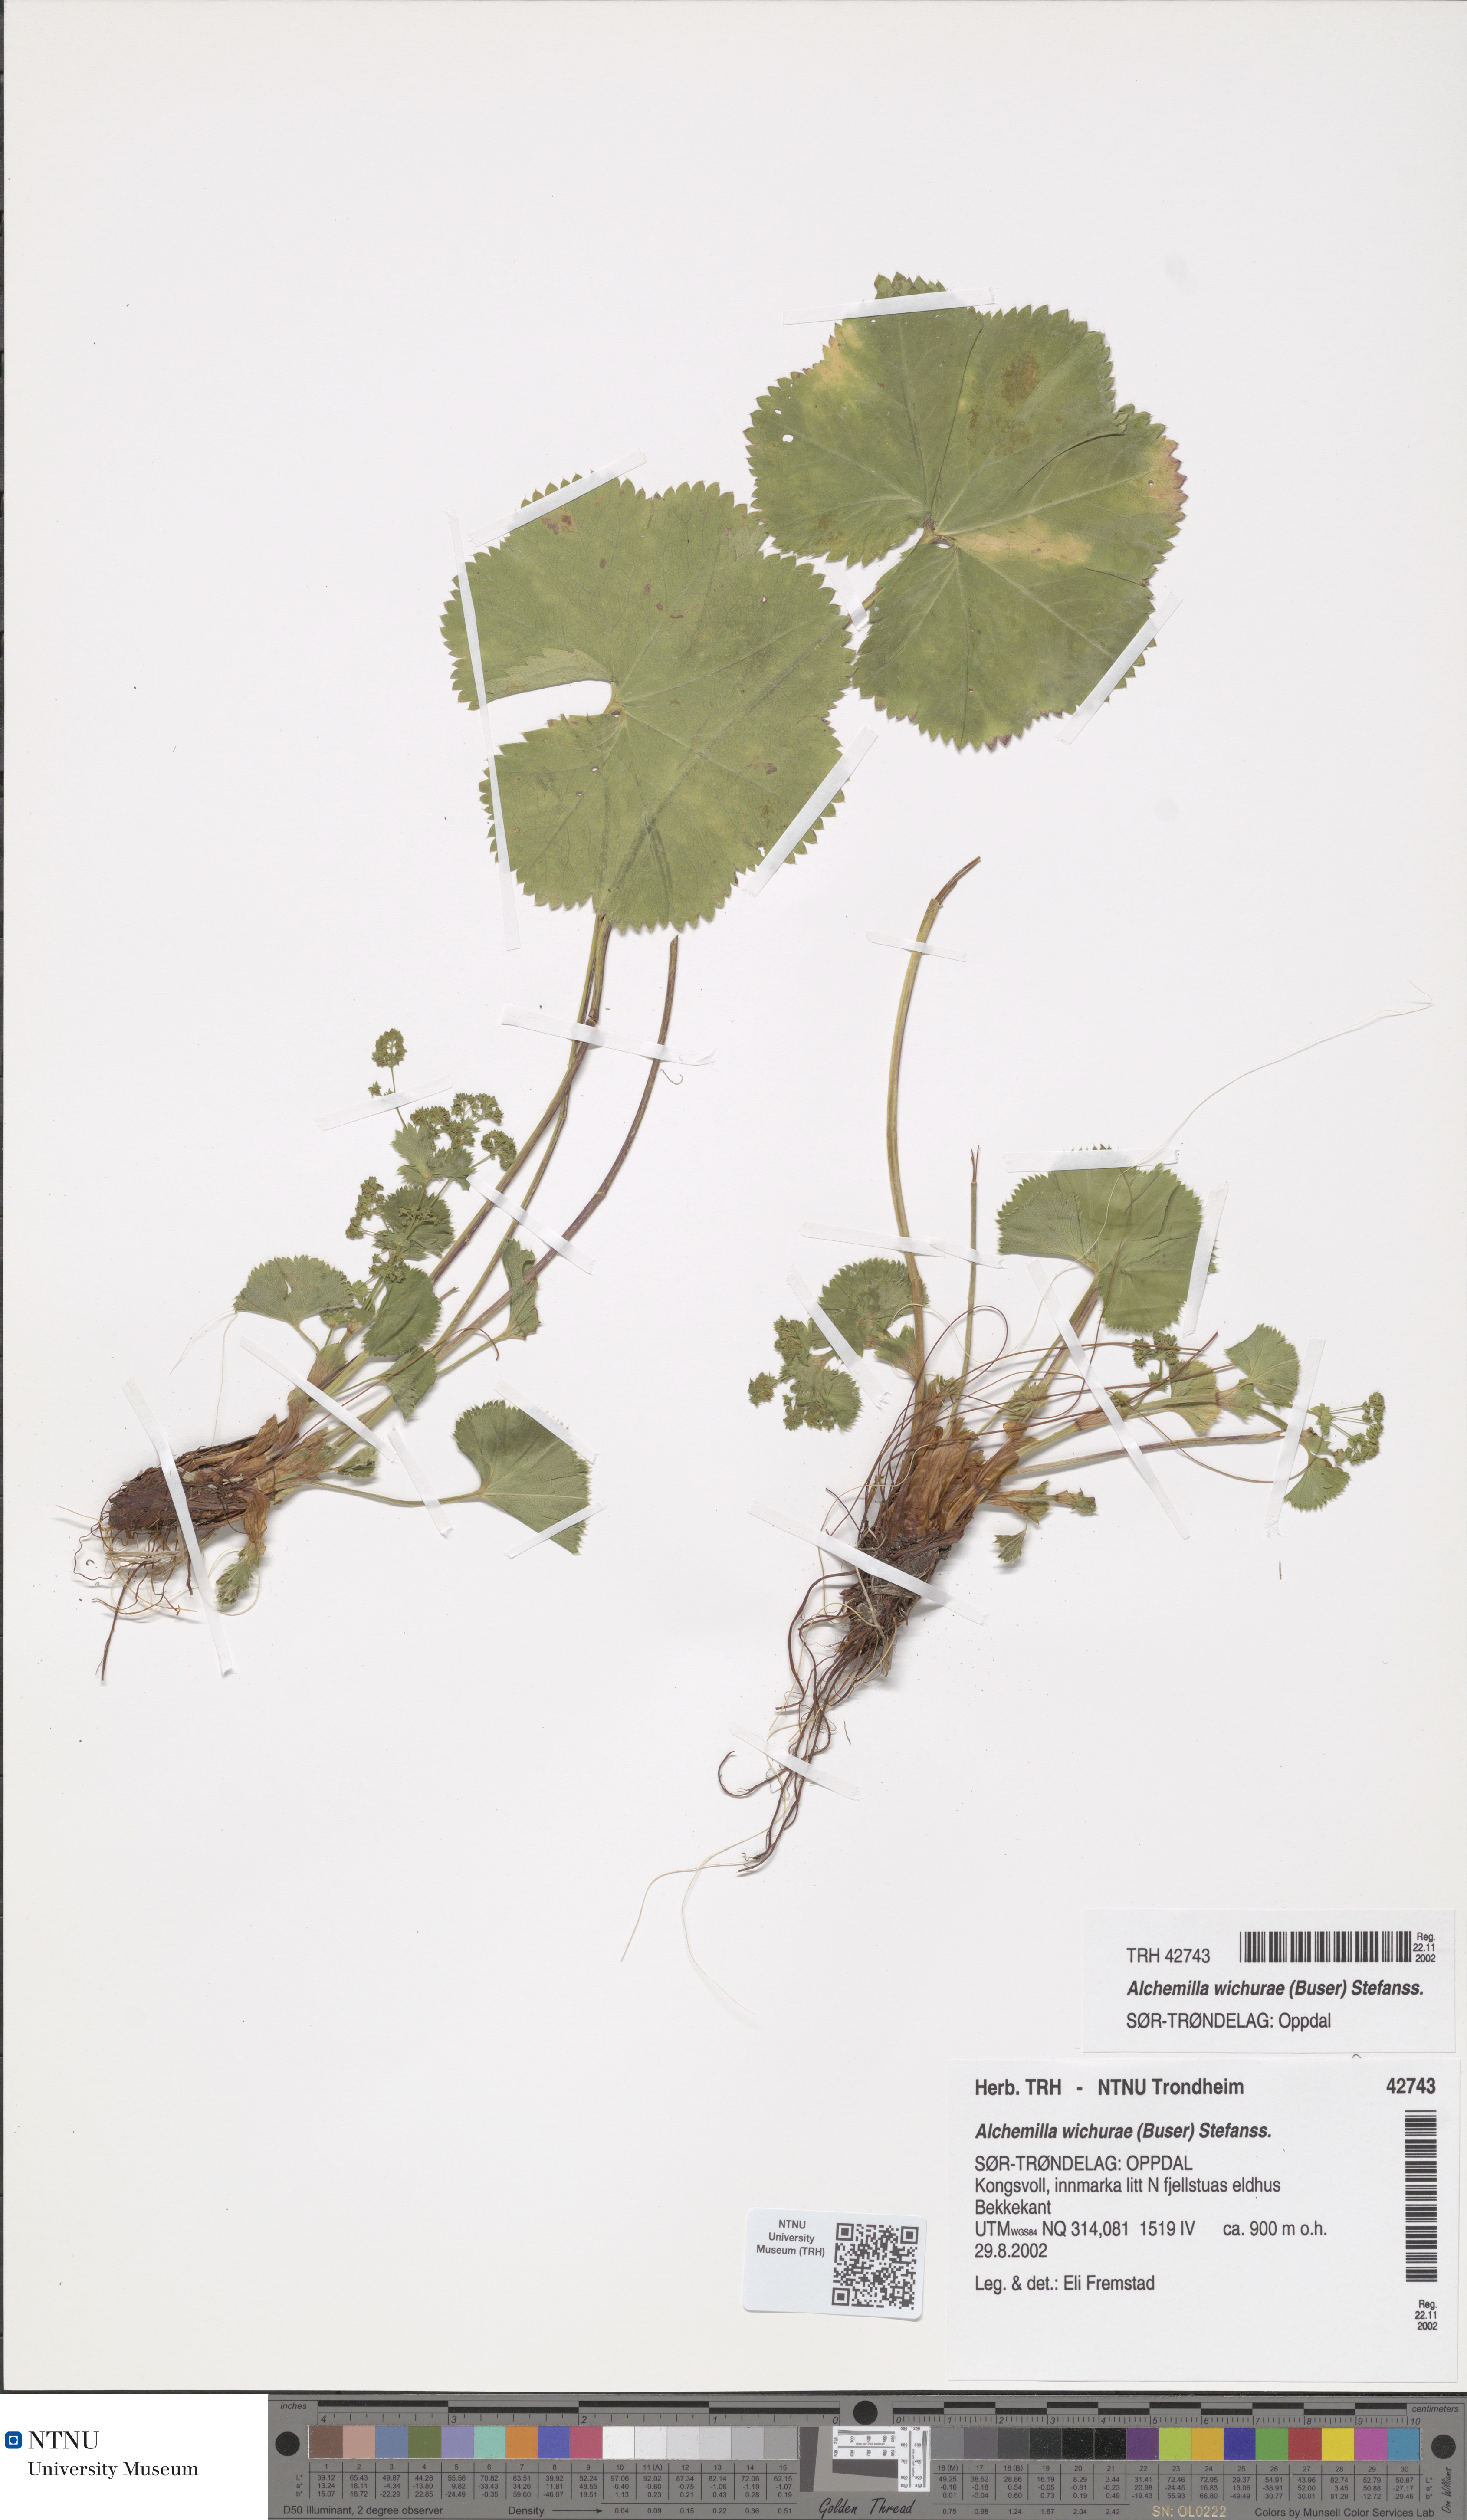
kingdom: Plantae
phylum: Tracheophyta
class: Magnoliopsida
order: Rosales
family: Rosaceae
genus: Alchemilla
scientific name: Alchemilla wichurae
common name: Rock lady's mantle
